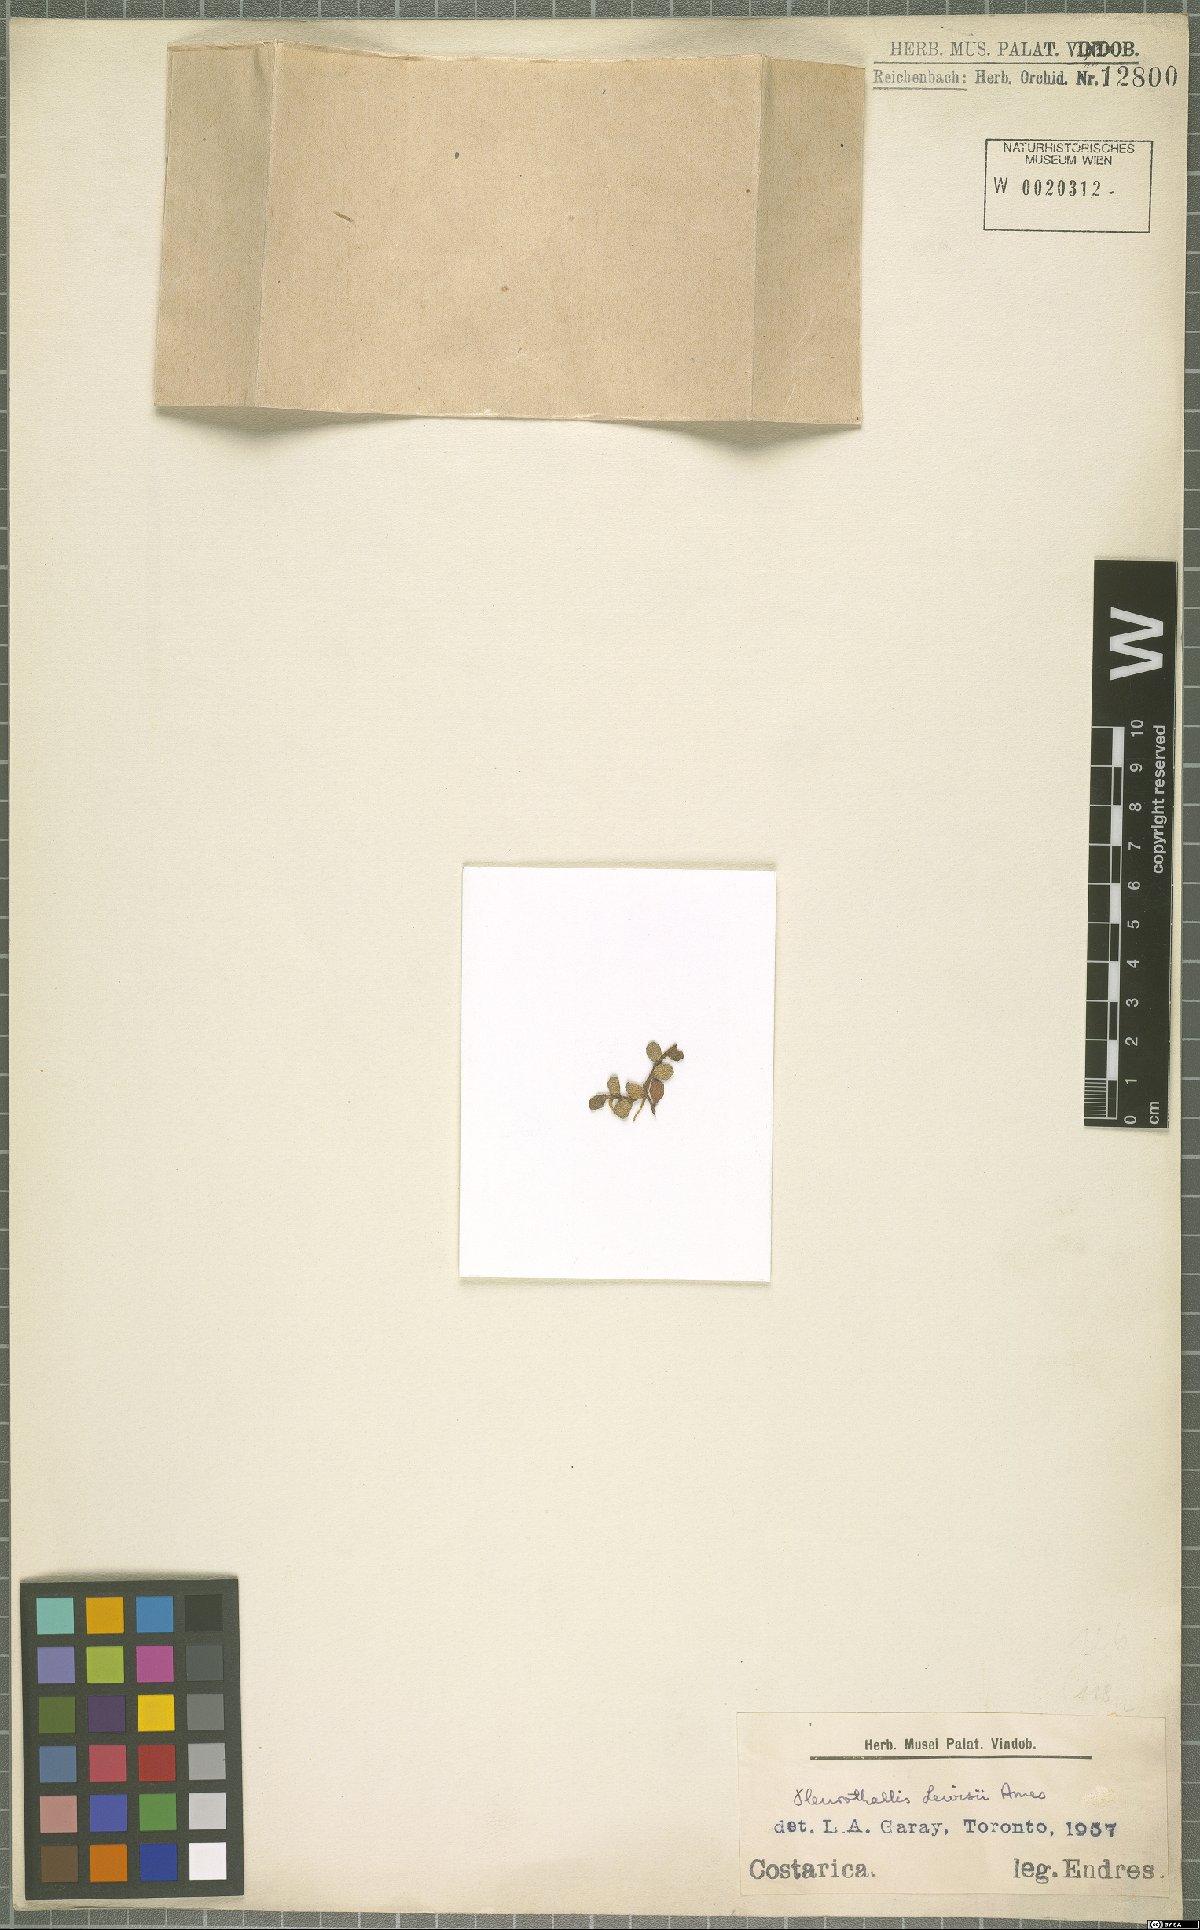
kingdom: Plantae
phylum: Tracheophyta
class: Liliopsida
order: Asparagales
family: Orchidaceae
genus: Anathallis
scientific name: Anathallis lewisiae
